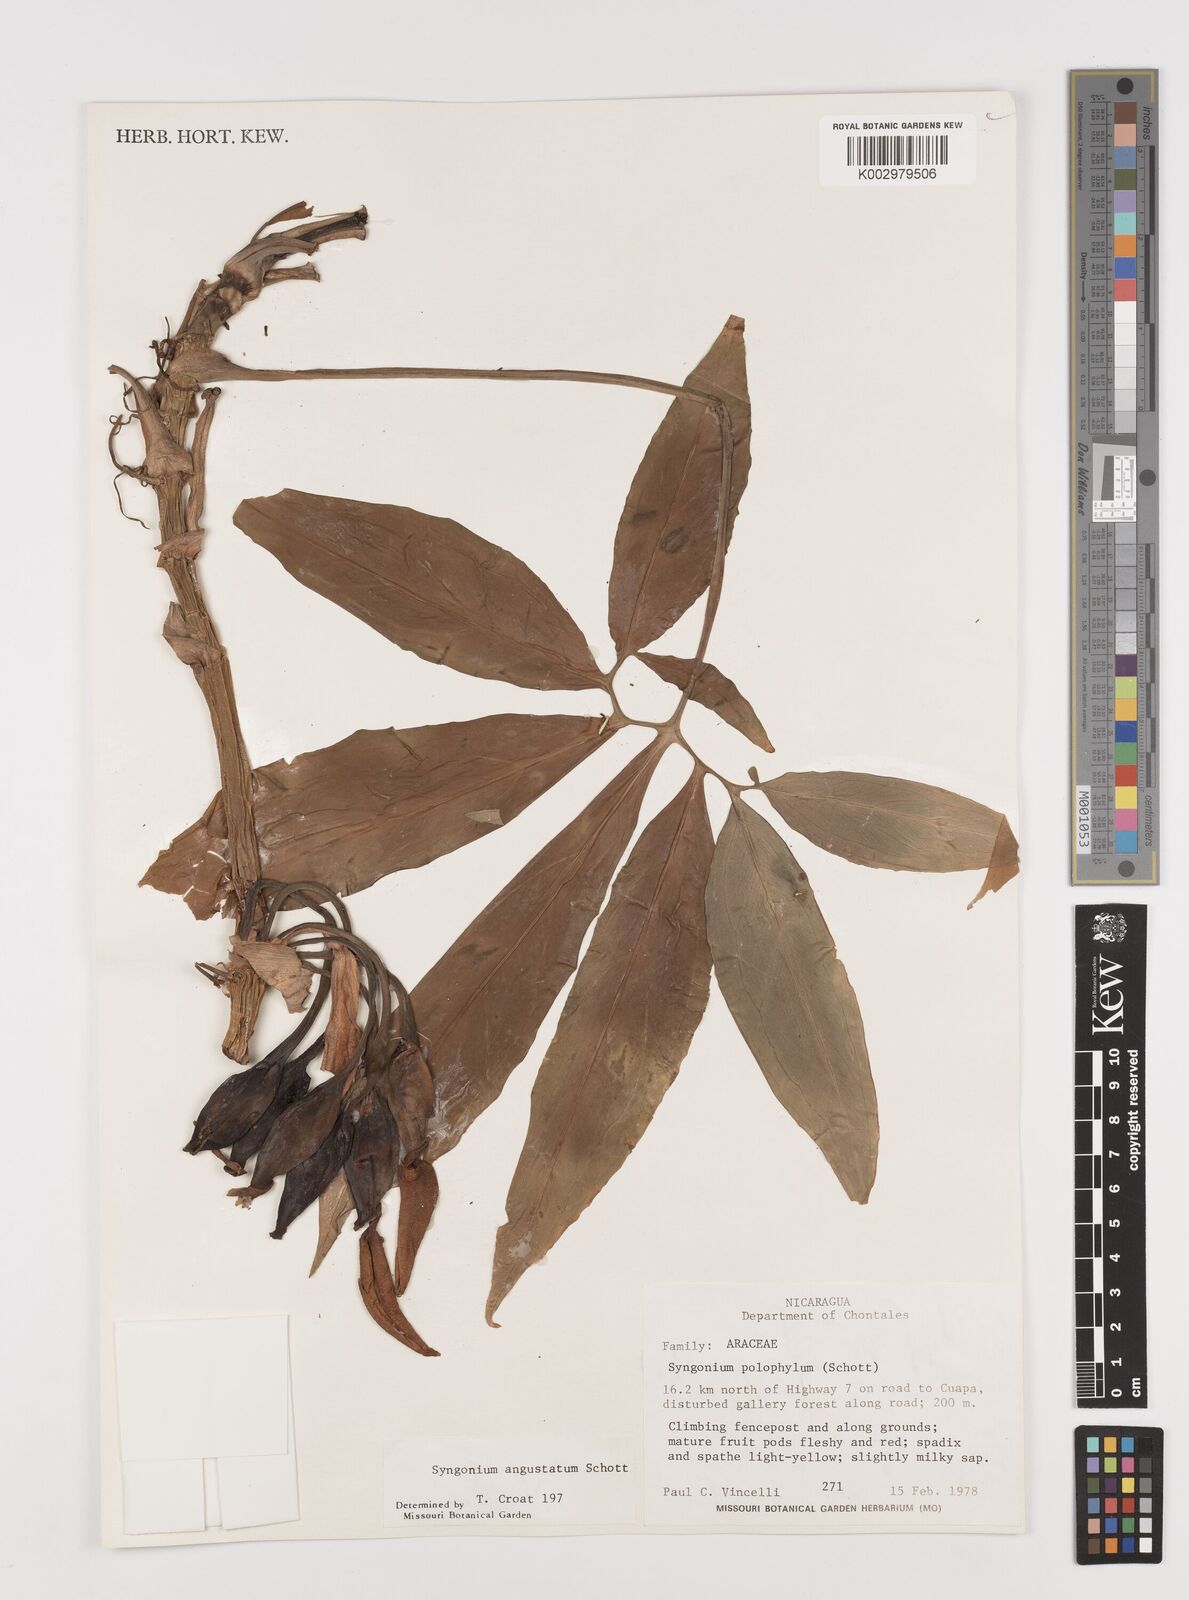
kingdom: Plantae
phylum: Tracheophyta
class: Liliopsida
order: Alismatales
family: Araceae
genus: Syngonium
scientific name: Syngonium angustatum
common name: Fivefingers
